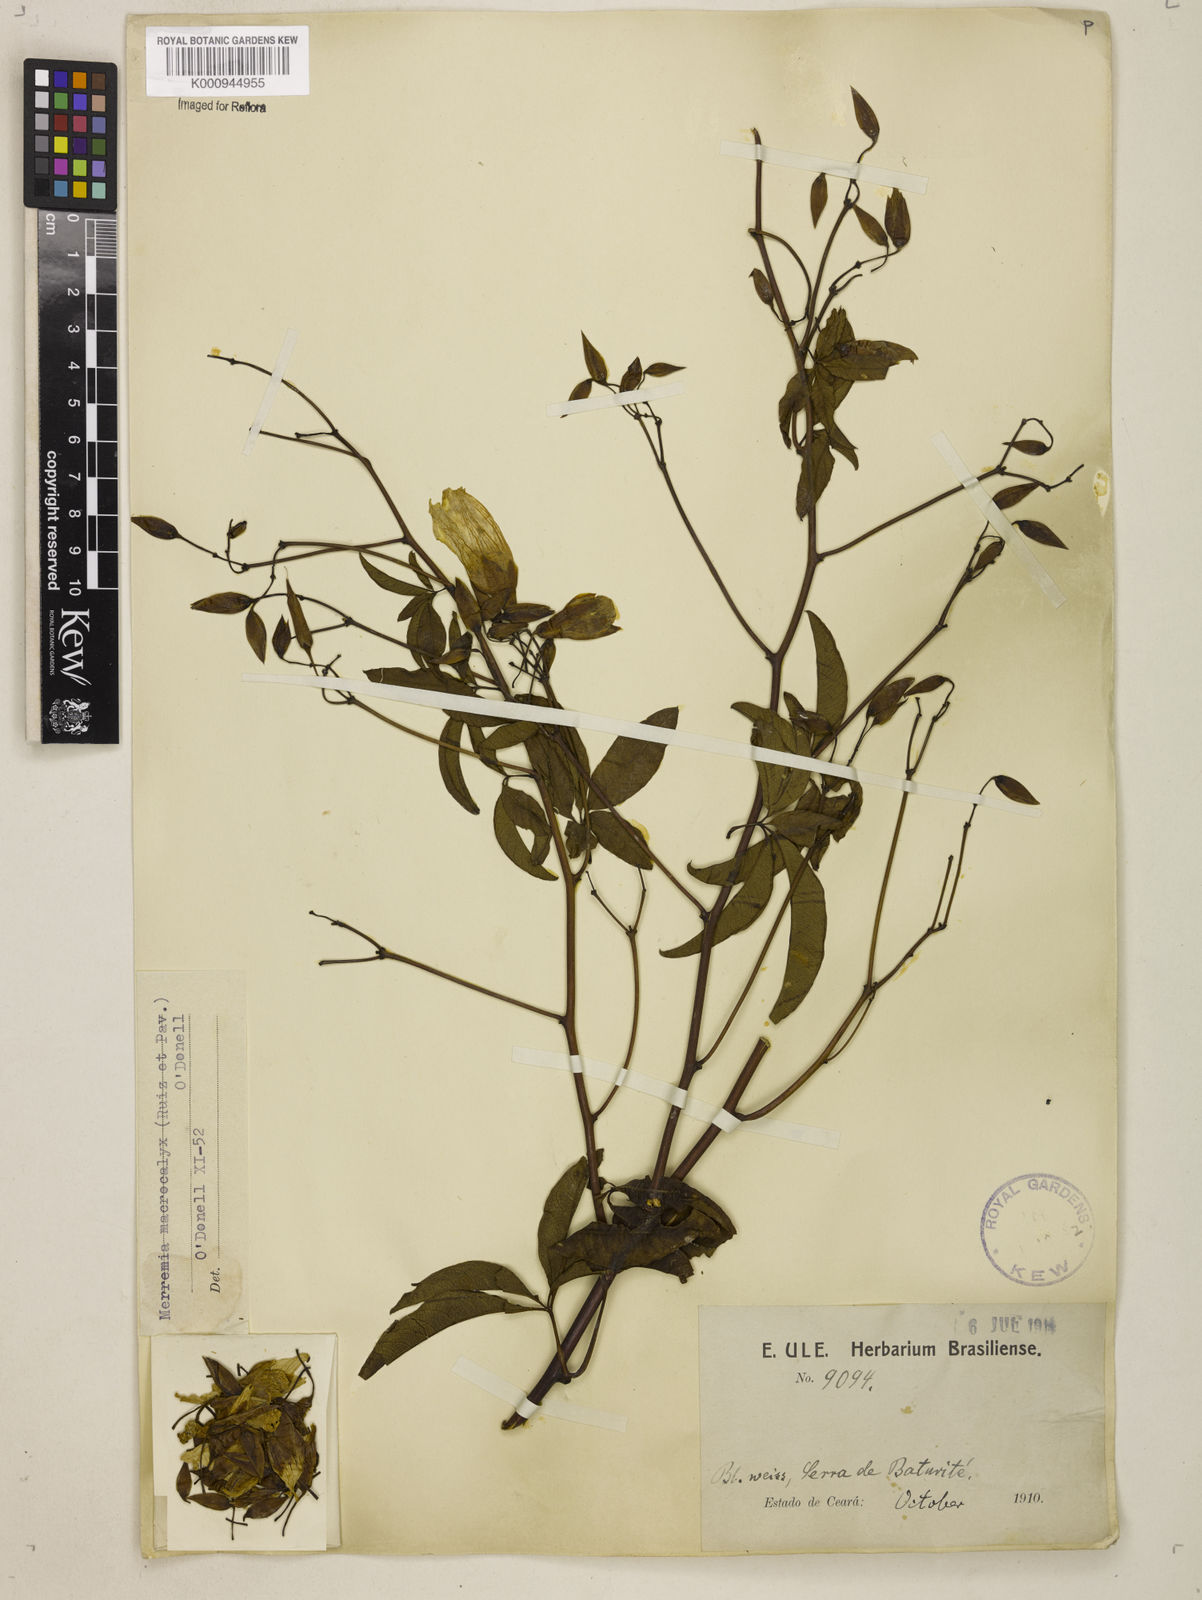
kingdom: Plantae
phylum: Tracheophyta
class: Magnoliopsida
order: Solanales
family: Convolvulaceae
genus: Distimake
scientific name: Distimake macrocalyx
